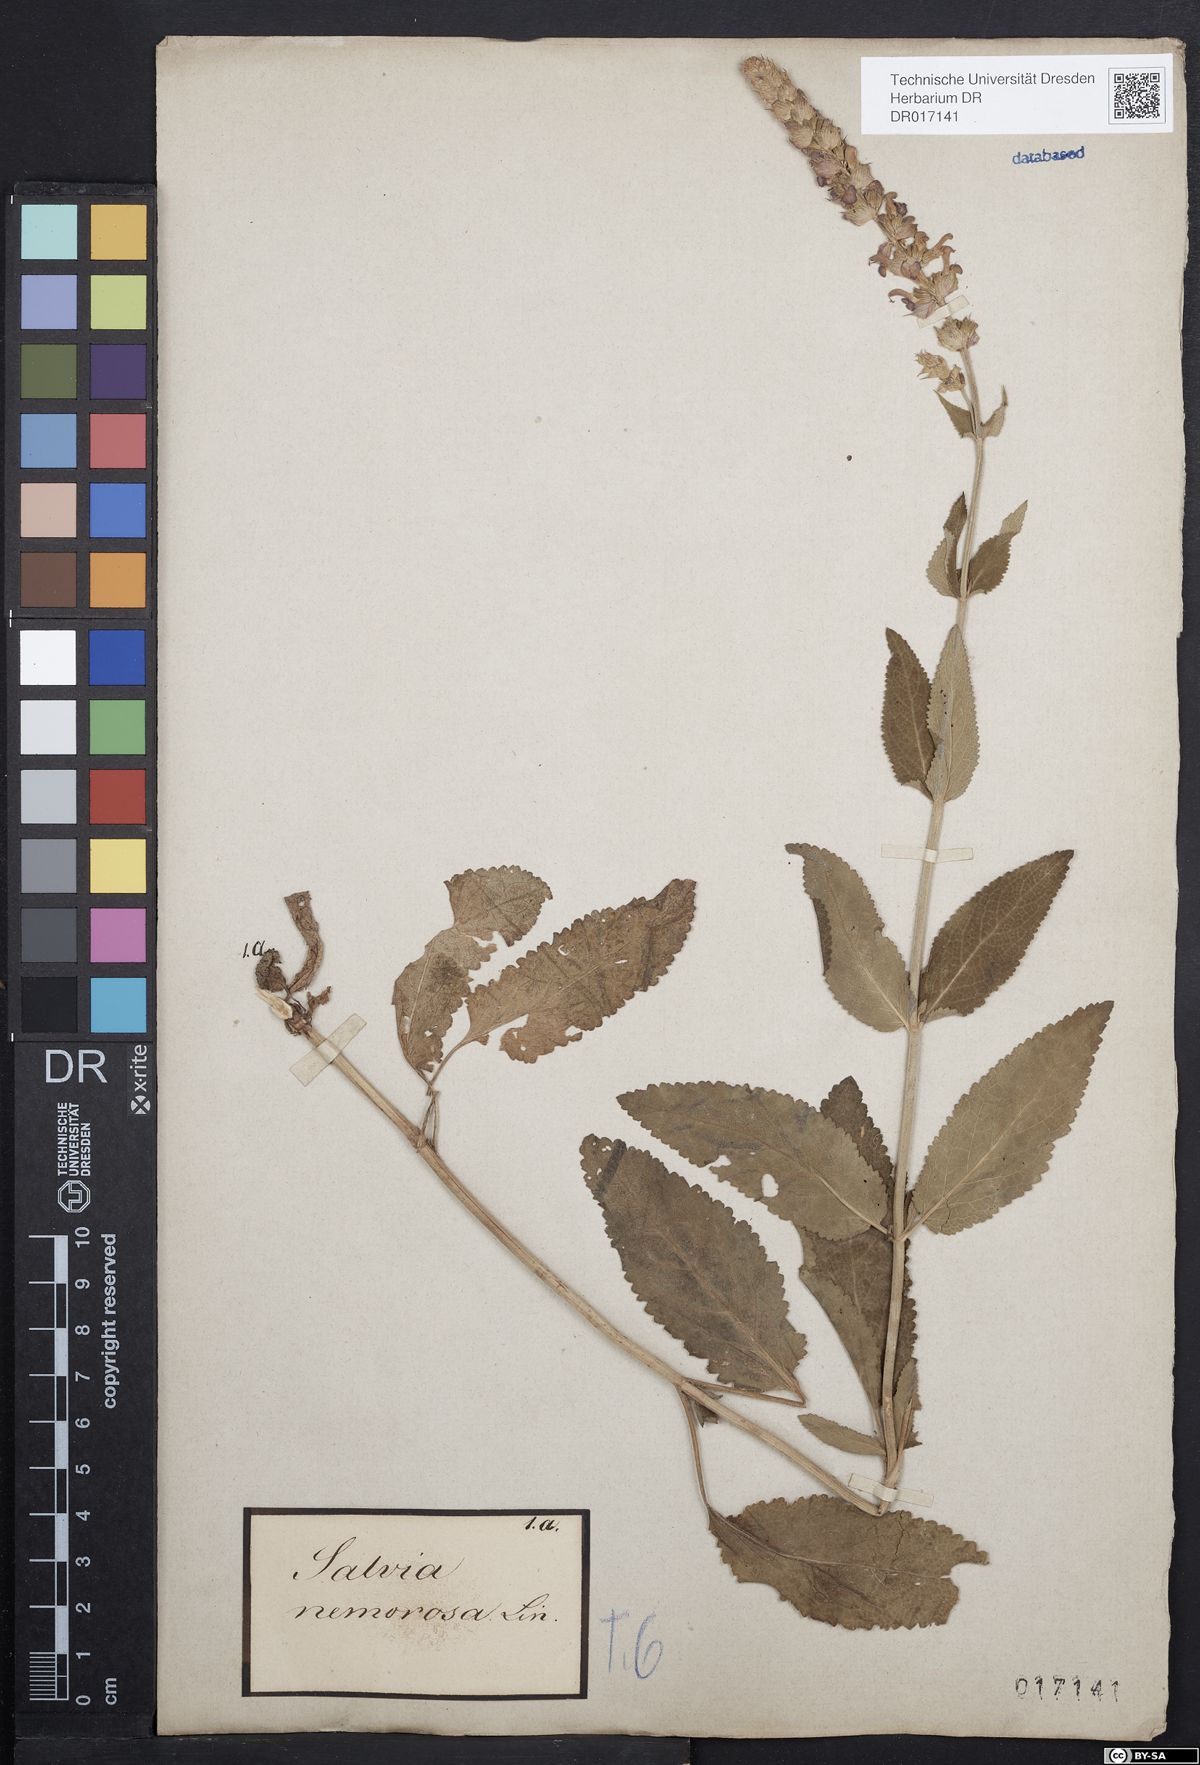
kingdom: Plantae
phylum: Tracheophyta
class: Magnoliopsida
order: Lamiales
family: Lamiaceae
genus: Salvia
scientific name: Salvia nemorosa
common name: Balkan clary
